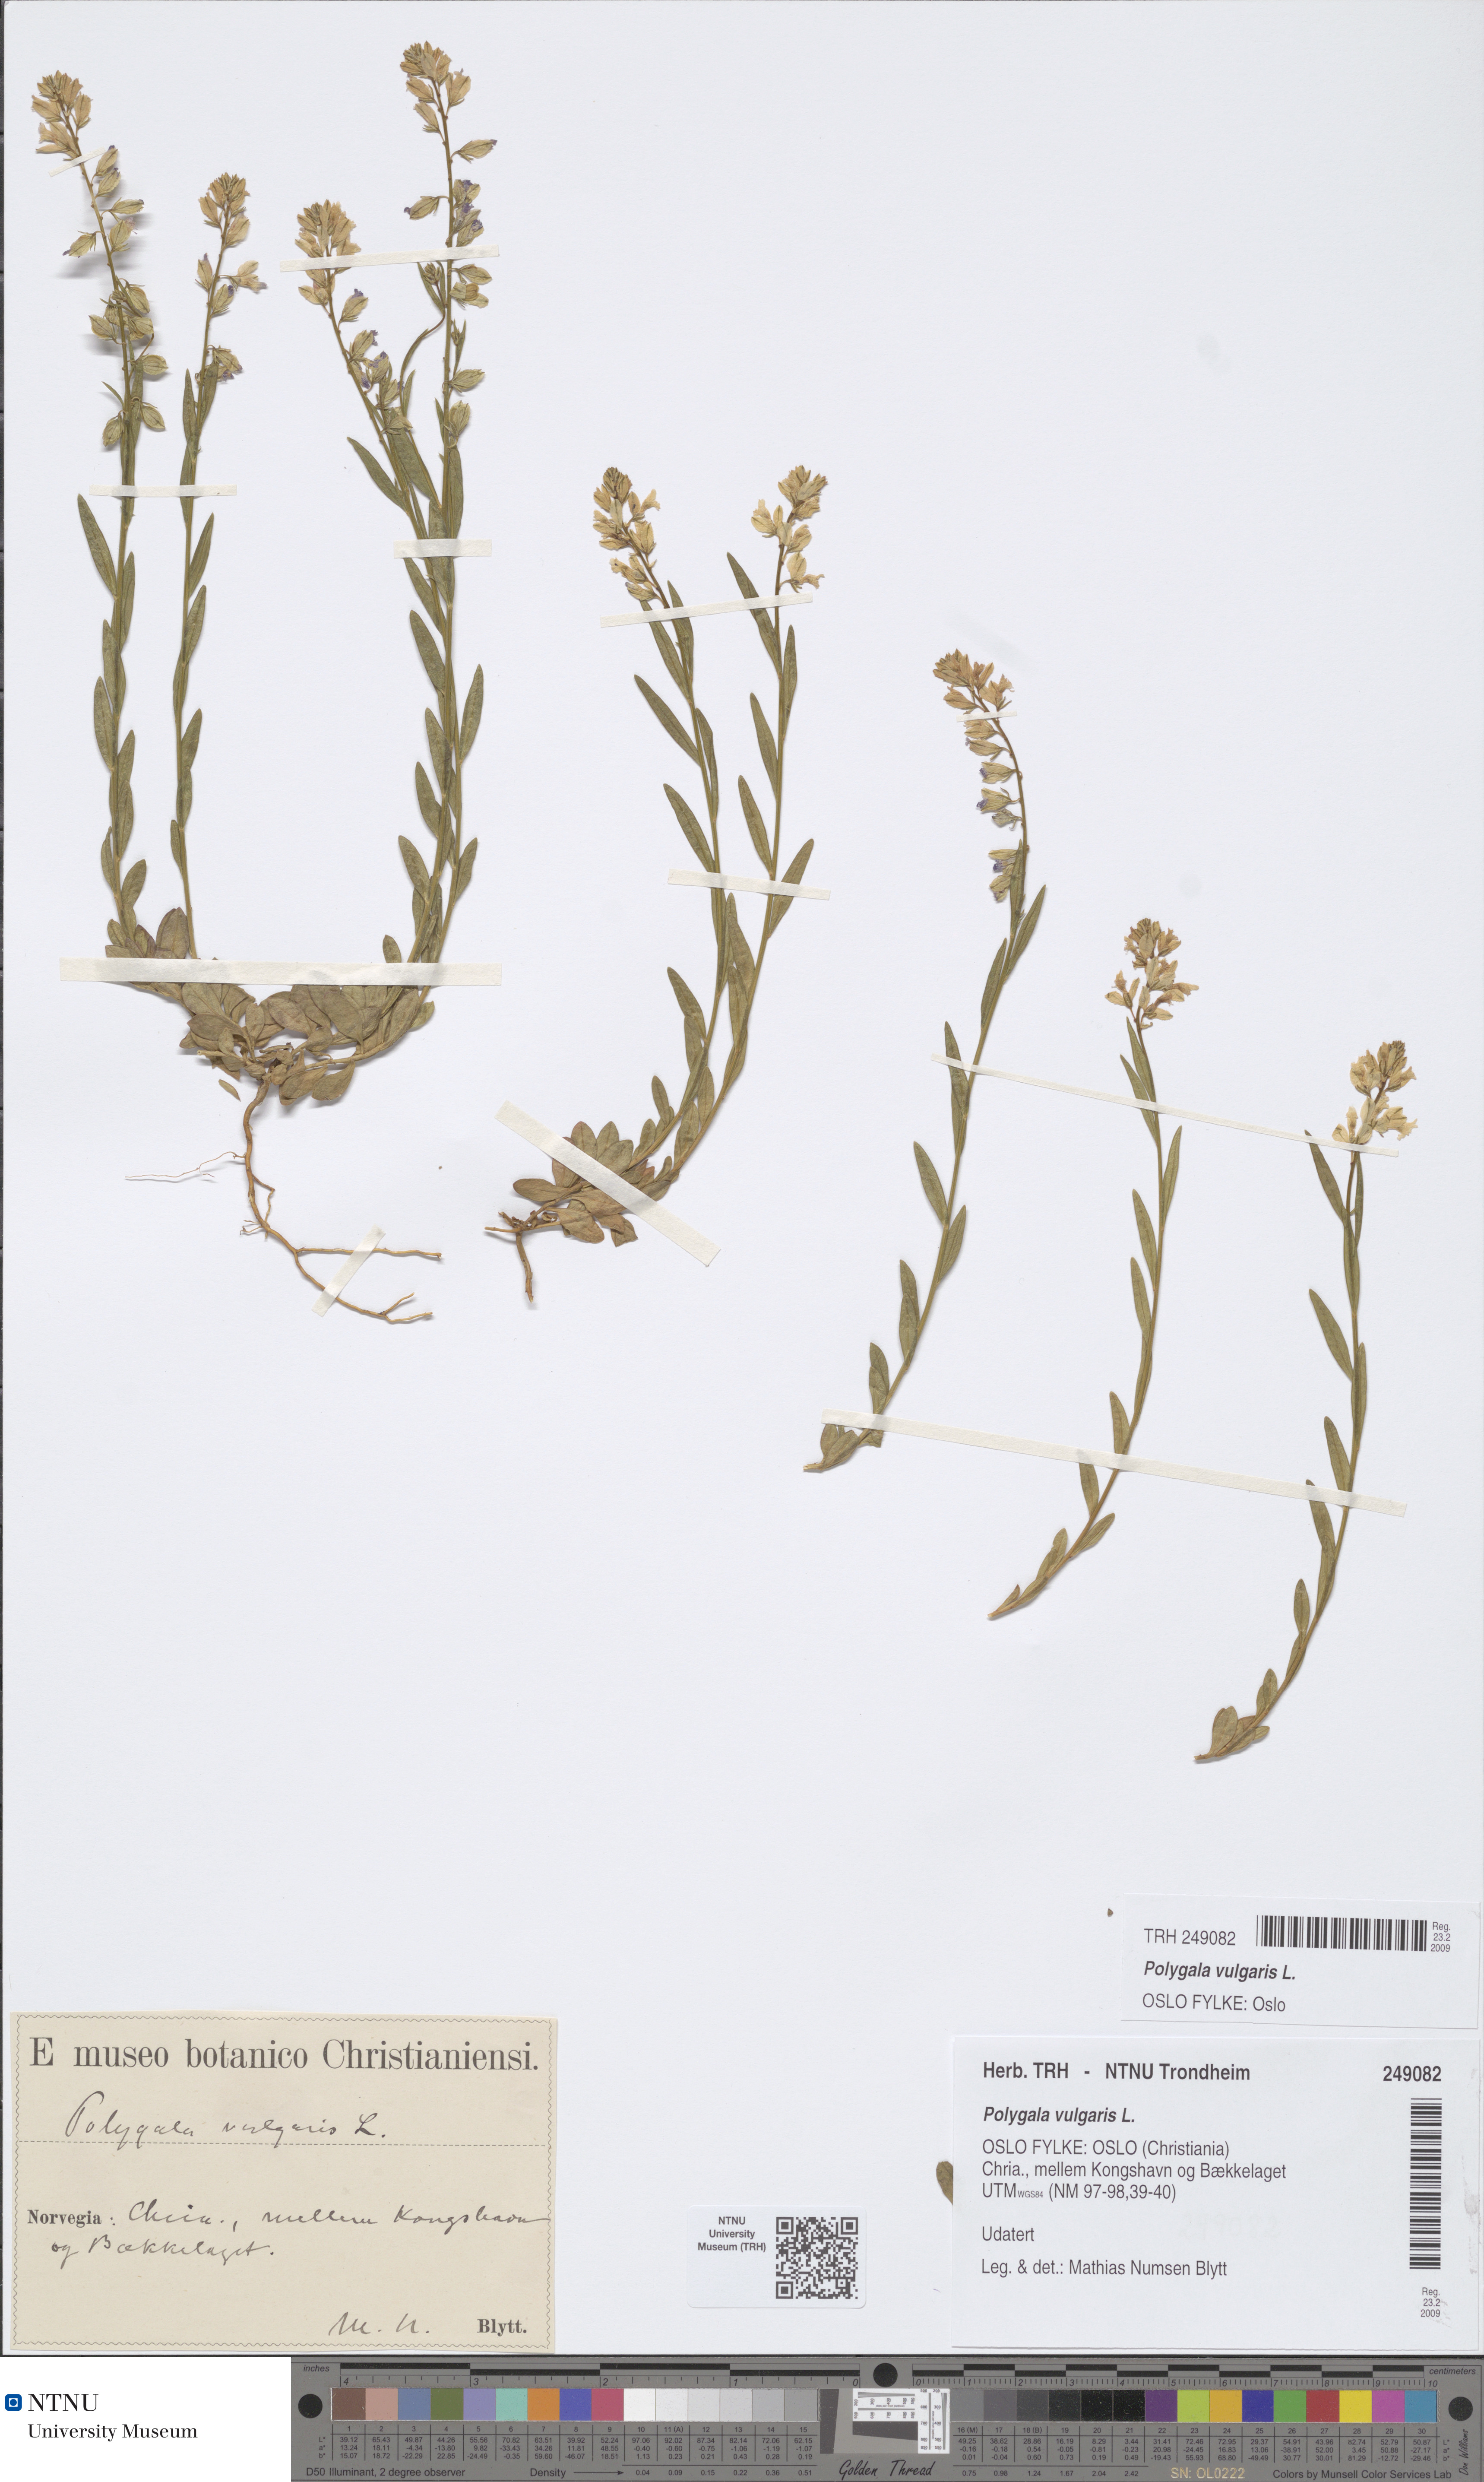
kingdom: Plantae
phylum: Tracheophyta
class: Magnoliopsida
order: Fabales
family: Polygalaceae
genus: Polygala
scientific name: Polygala vulgaris
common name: Common milkwort
